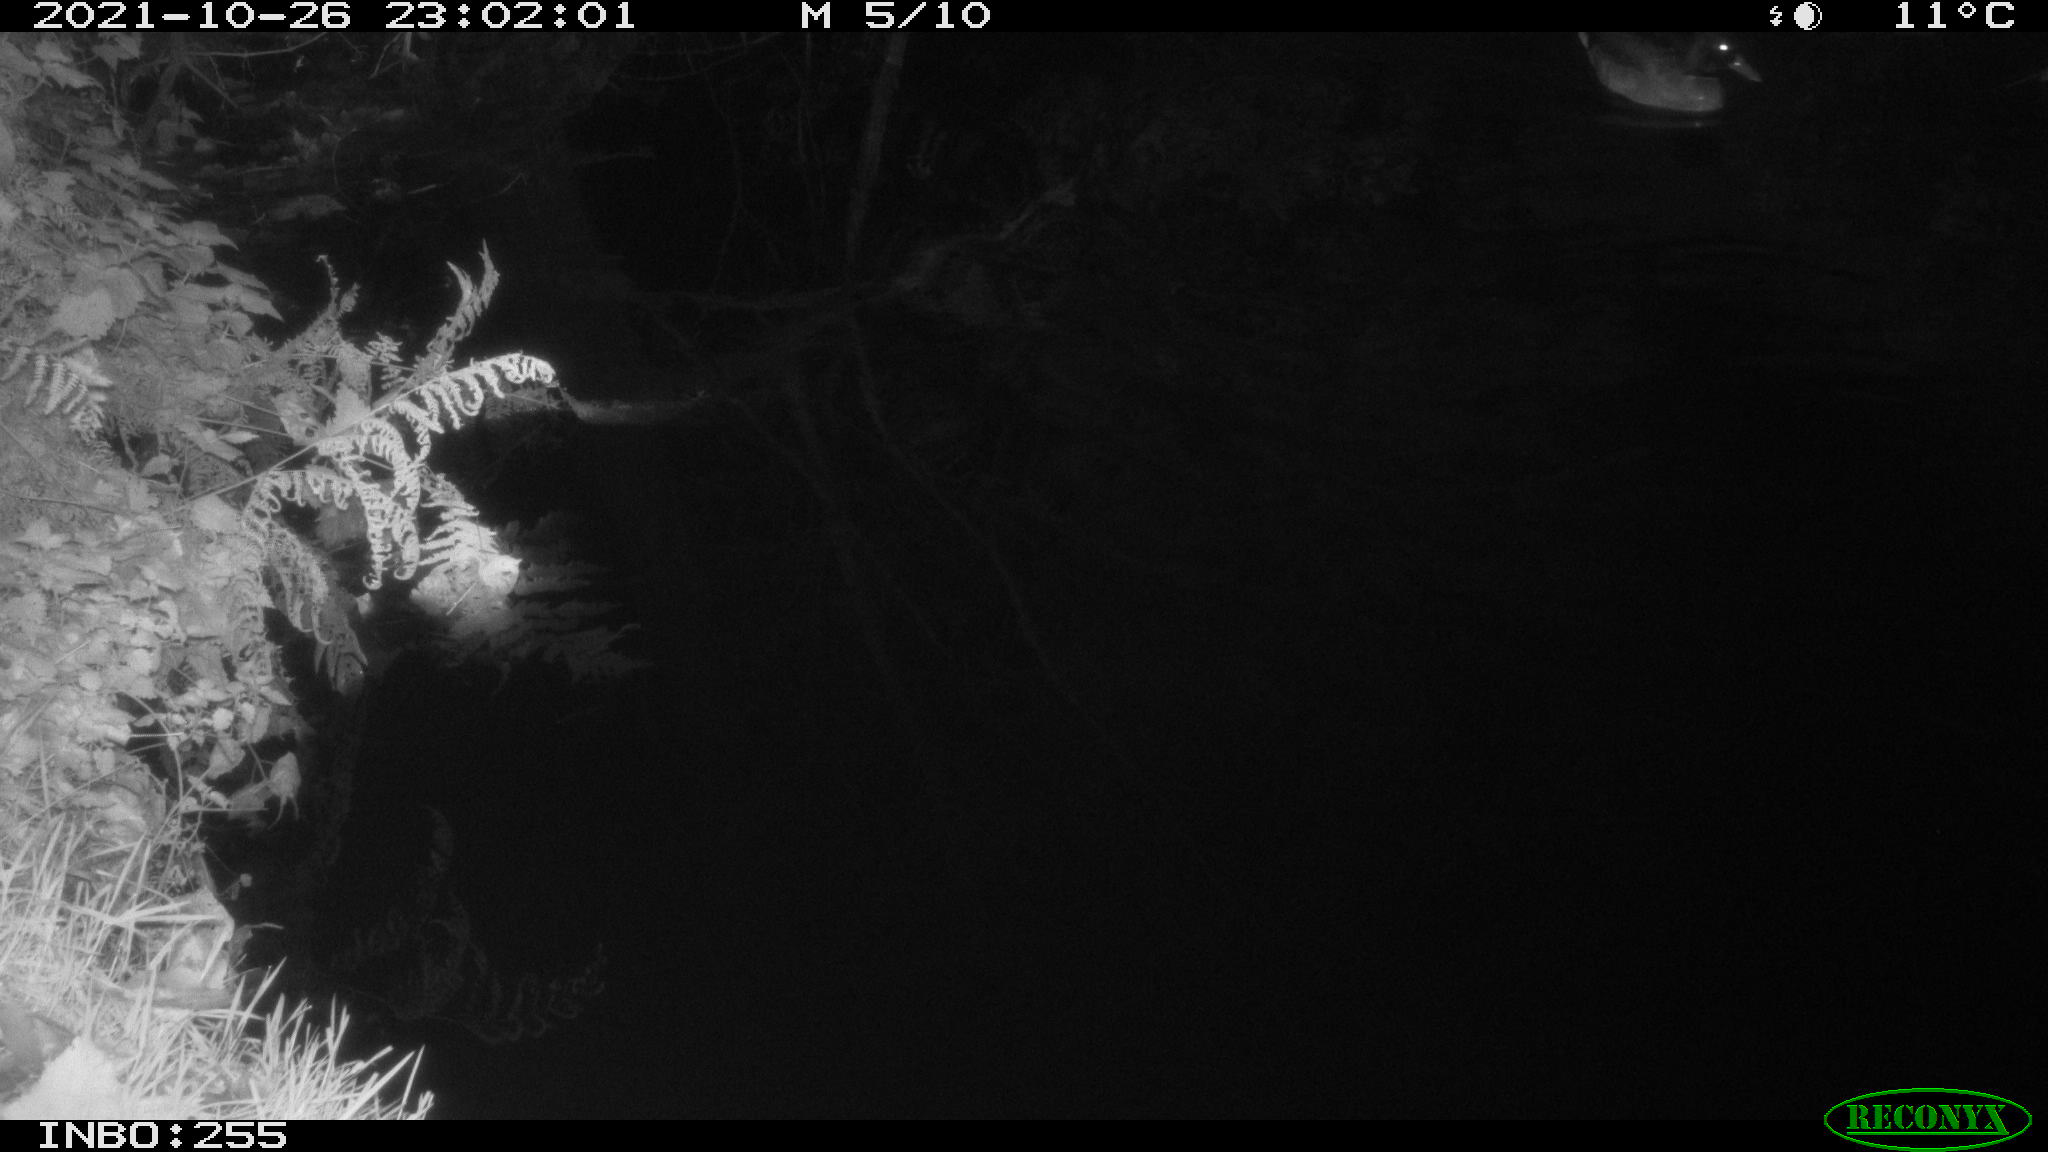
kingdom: Animalia
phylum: Chordata
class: Aves
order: Anseriformes
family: Anatidae
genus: Anas
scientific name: Anas platyrhynchos
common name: Mallard
